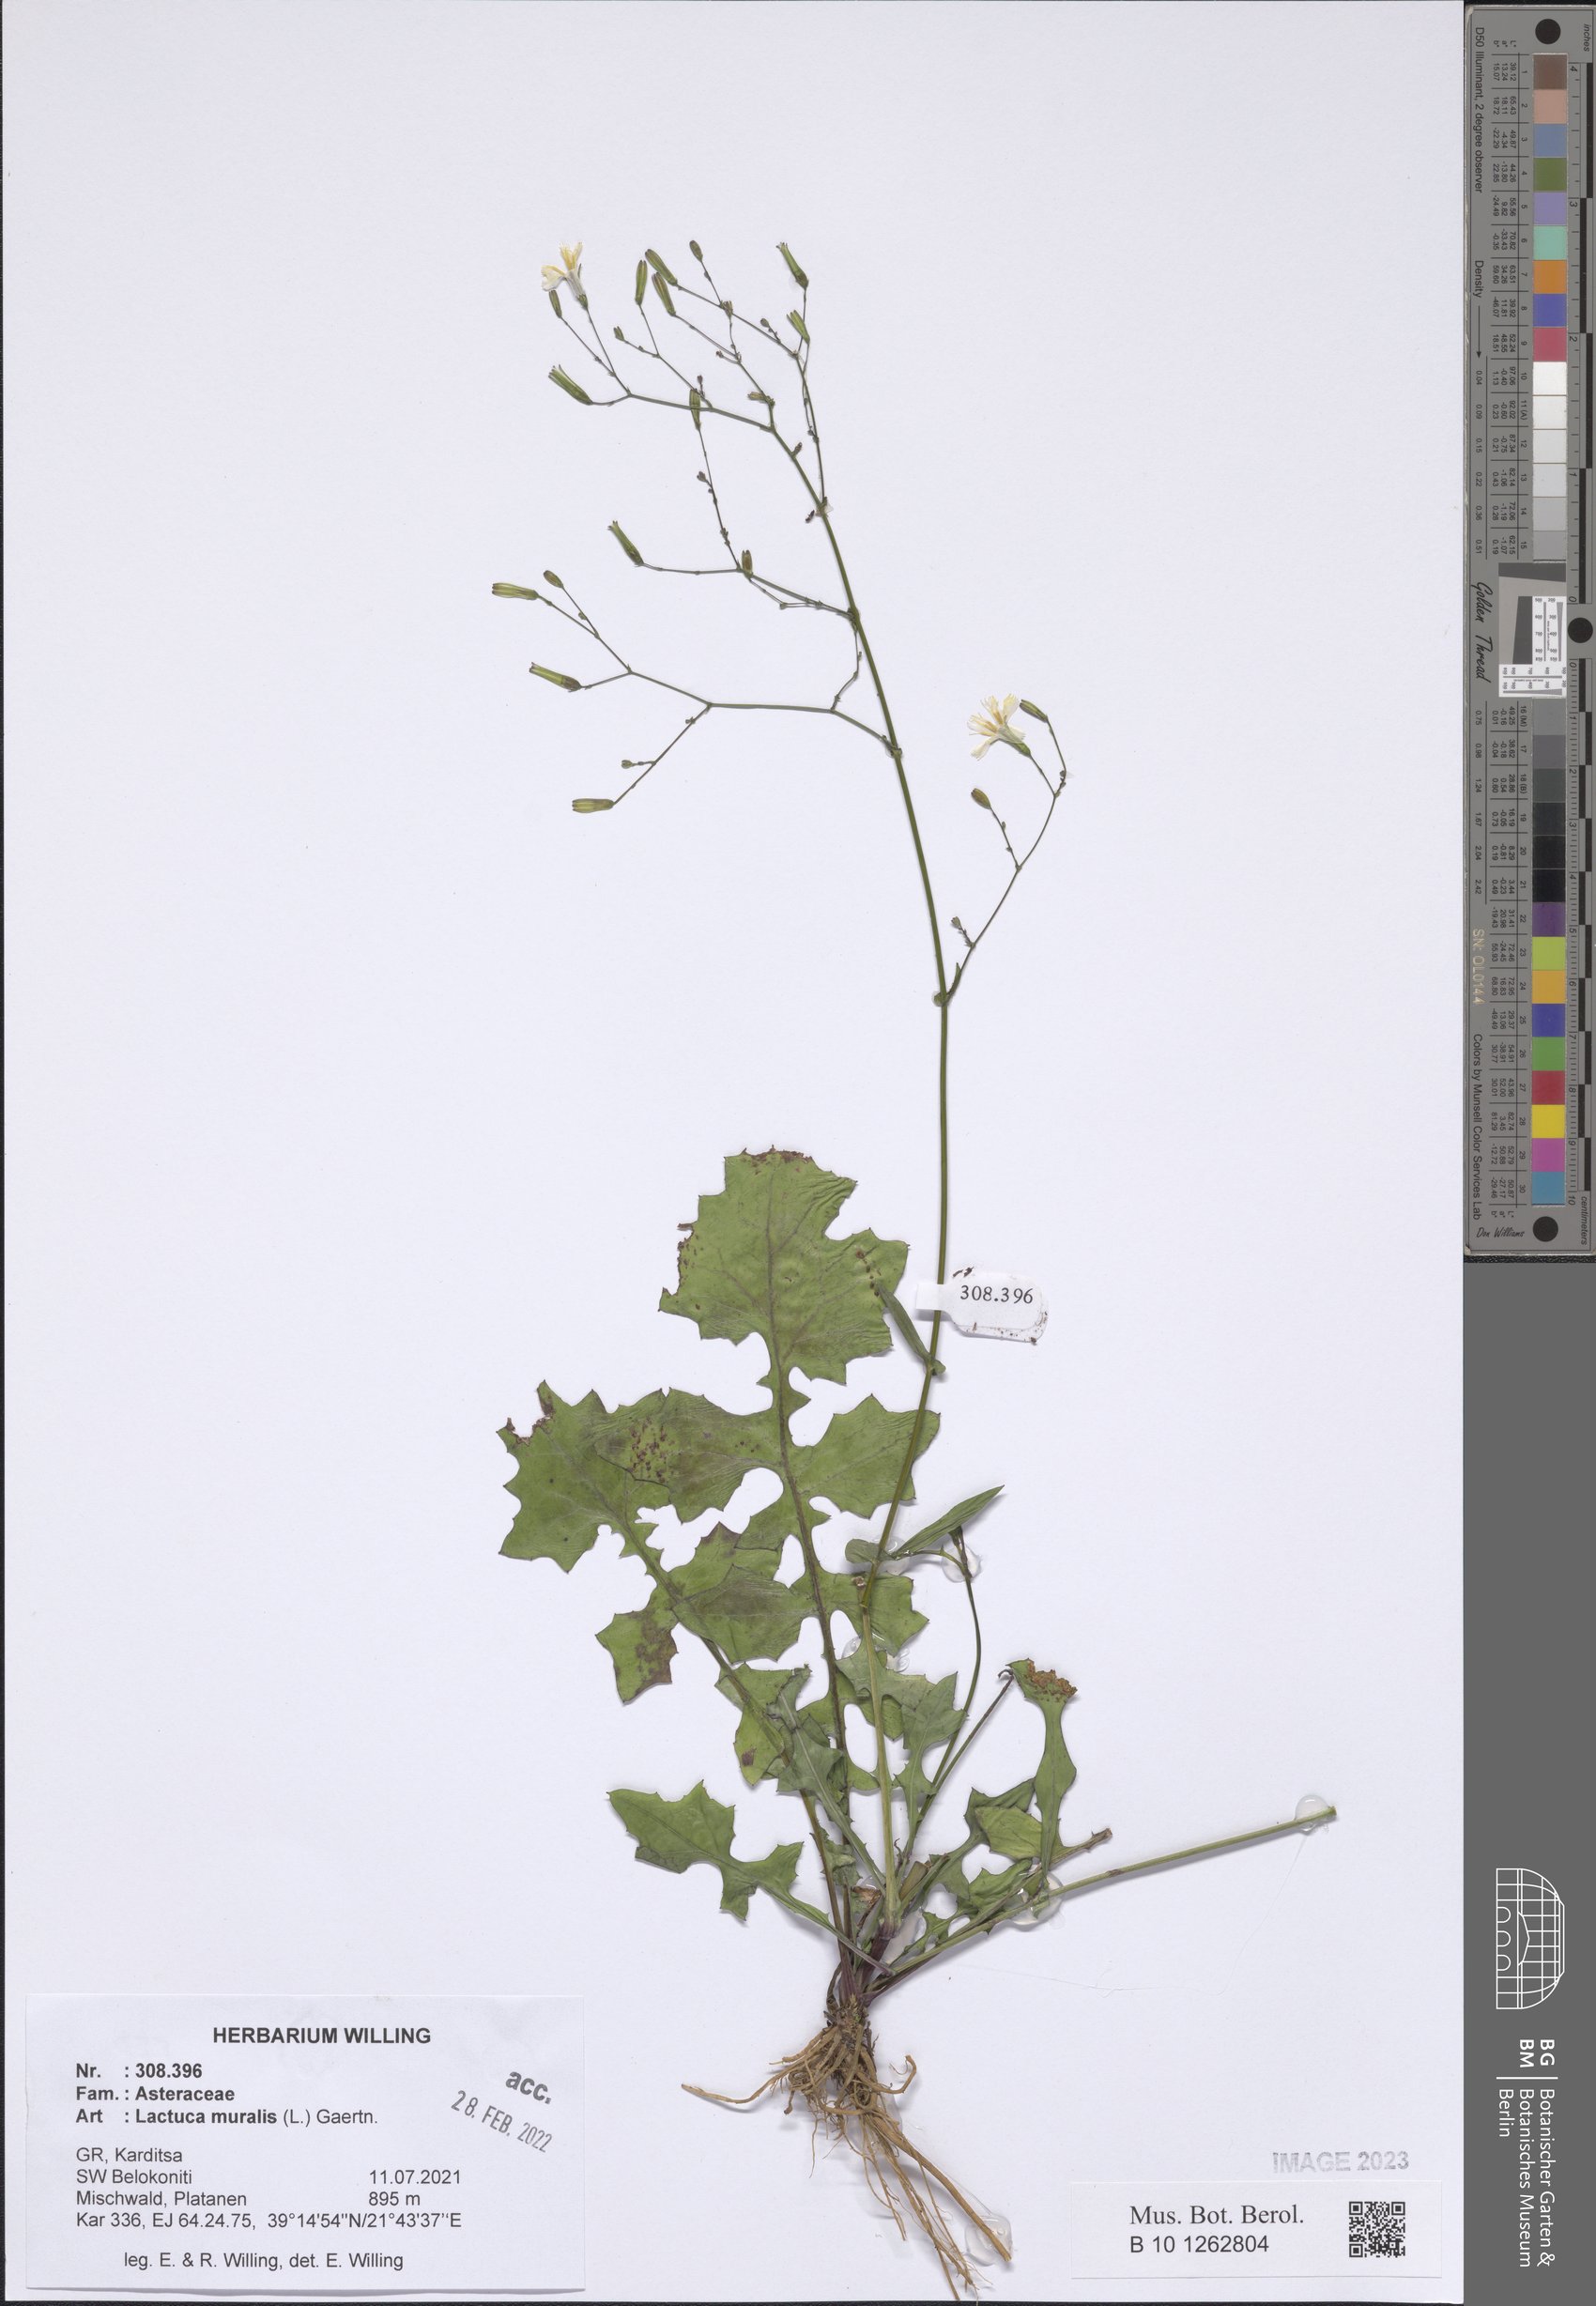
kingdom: Plantae
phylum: Tracheophyta
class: Magnoliopsida
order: Asterales
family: Asteraceae
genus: Mycelis
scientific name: Mycelis muralis
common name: Wall lettuce
